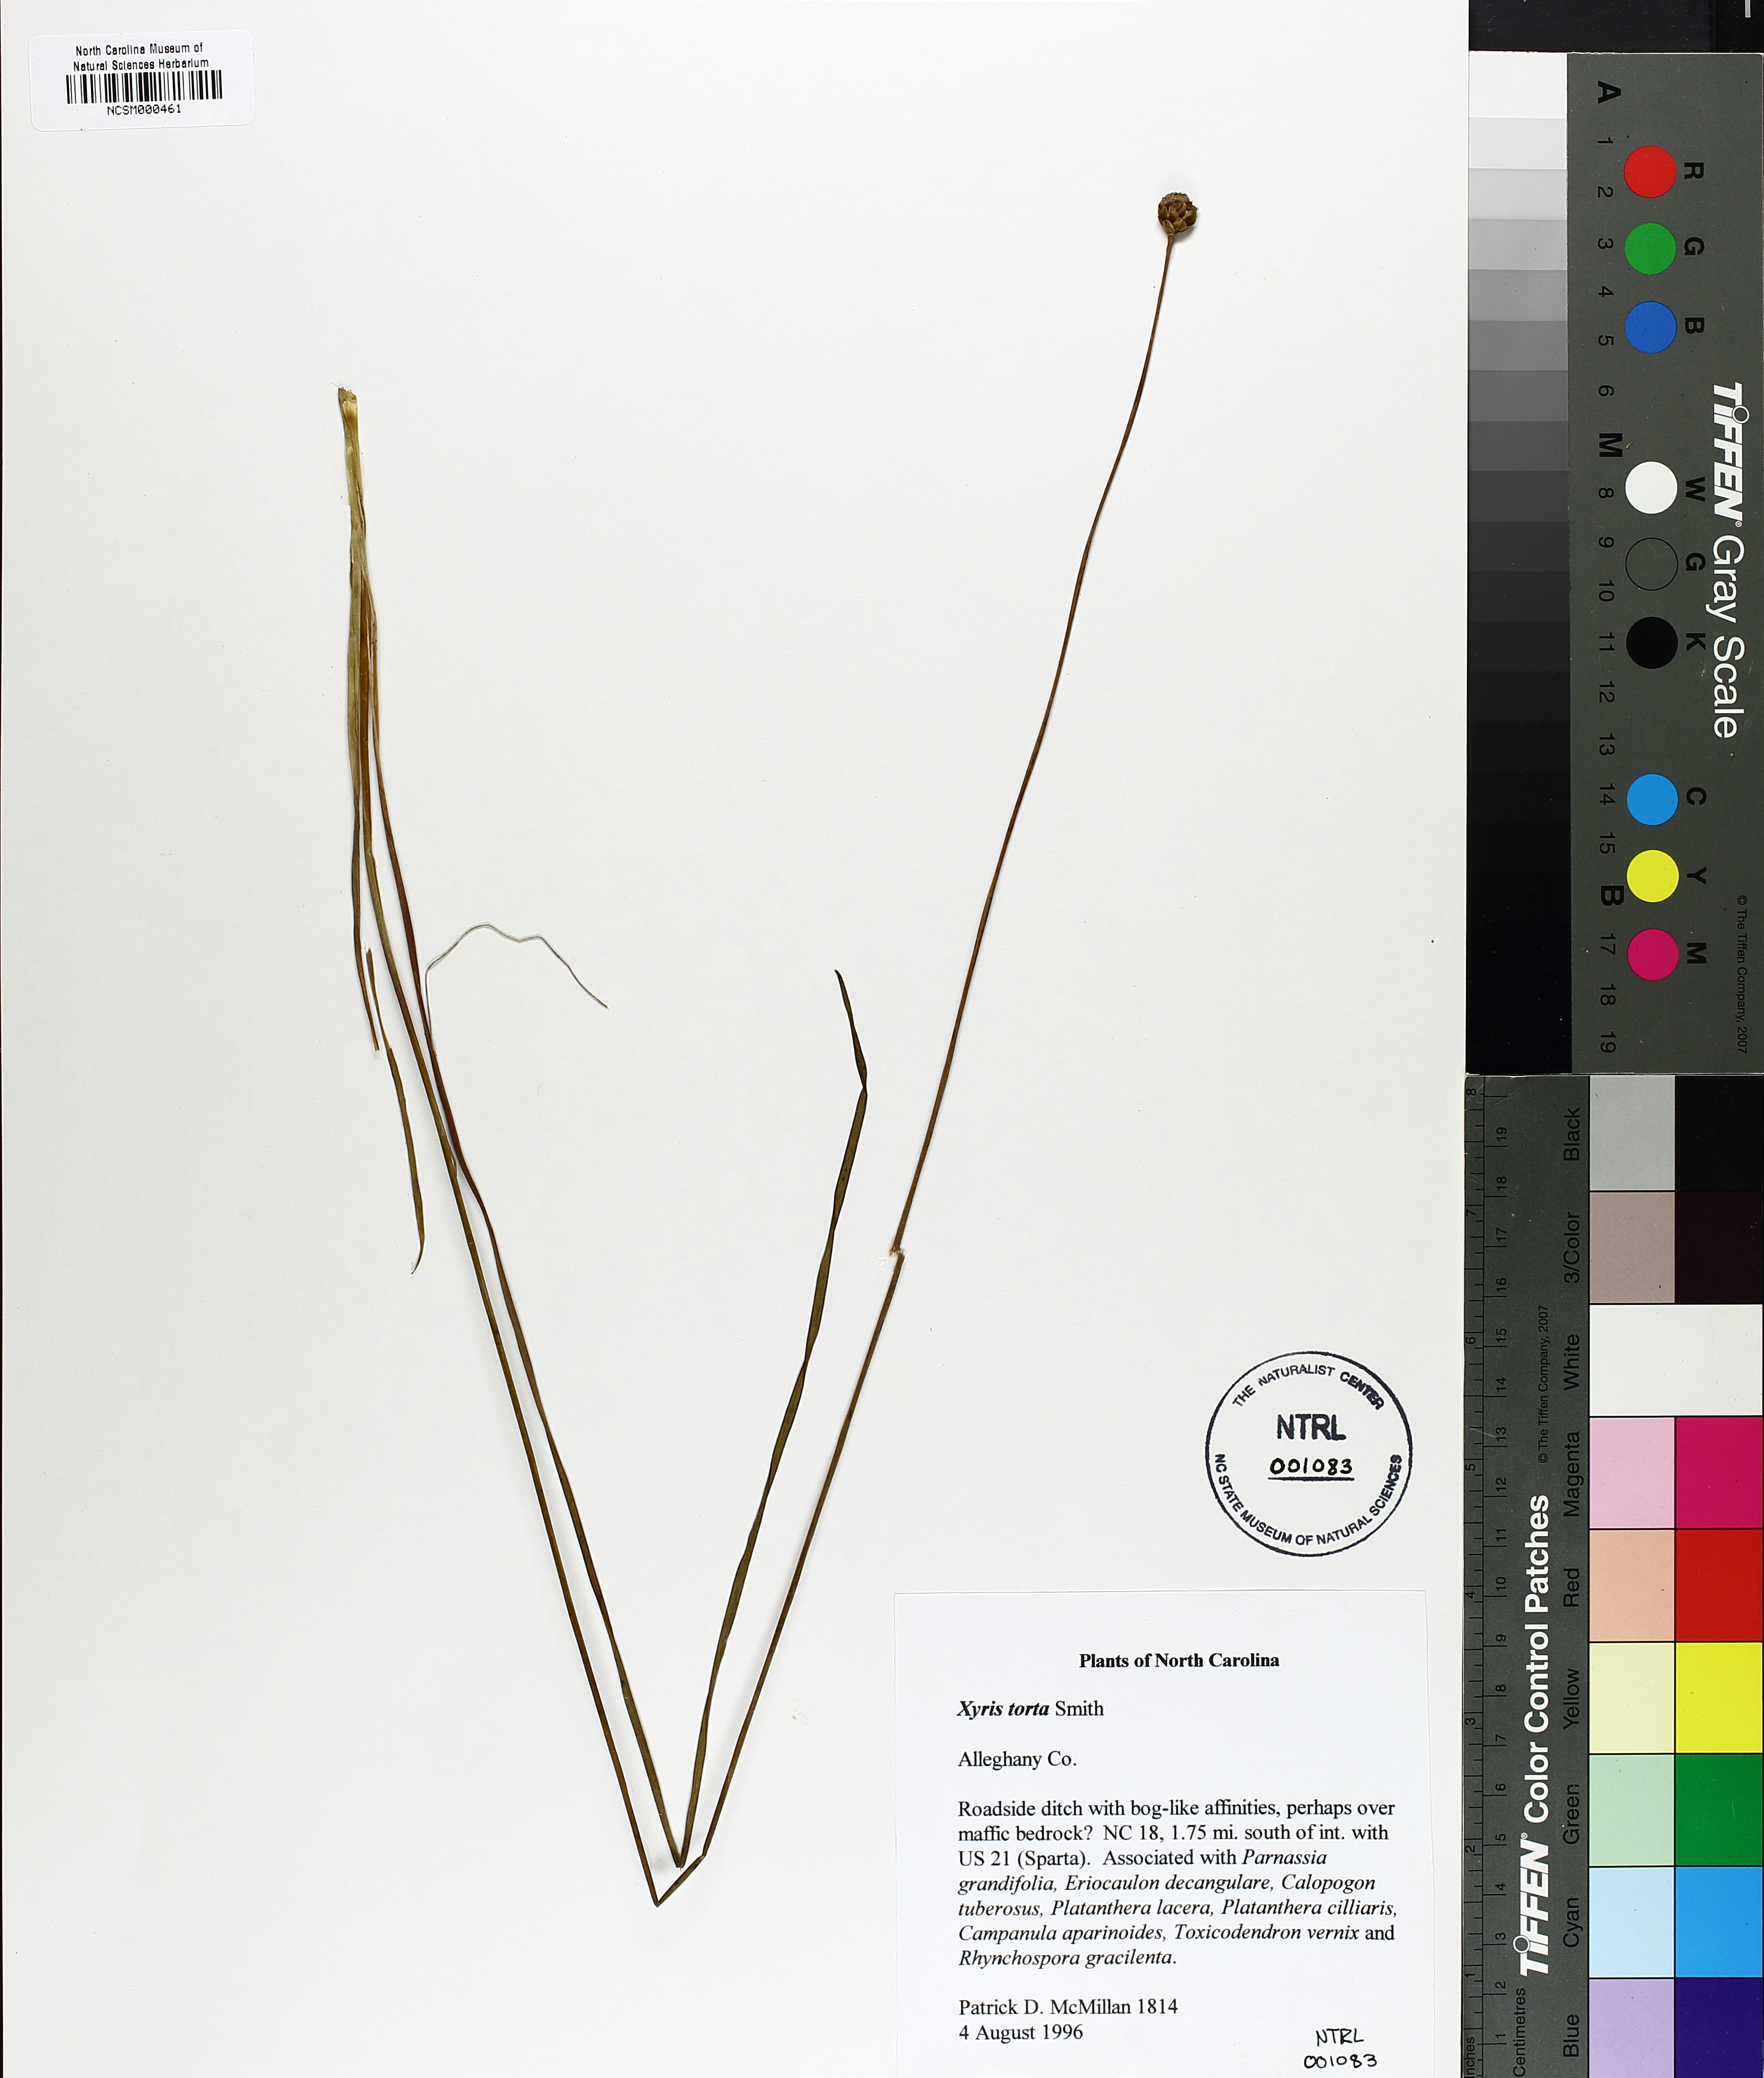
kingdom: Plantae
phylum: Tracheophyta
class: Liliopsida
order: Poales
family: Xyridaceae
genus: Xyris
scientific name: Xyris torta
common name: Common yelloweyed grass
